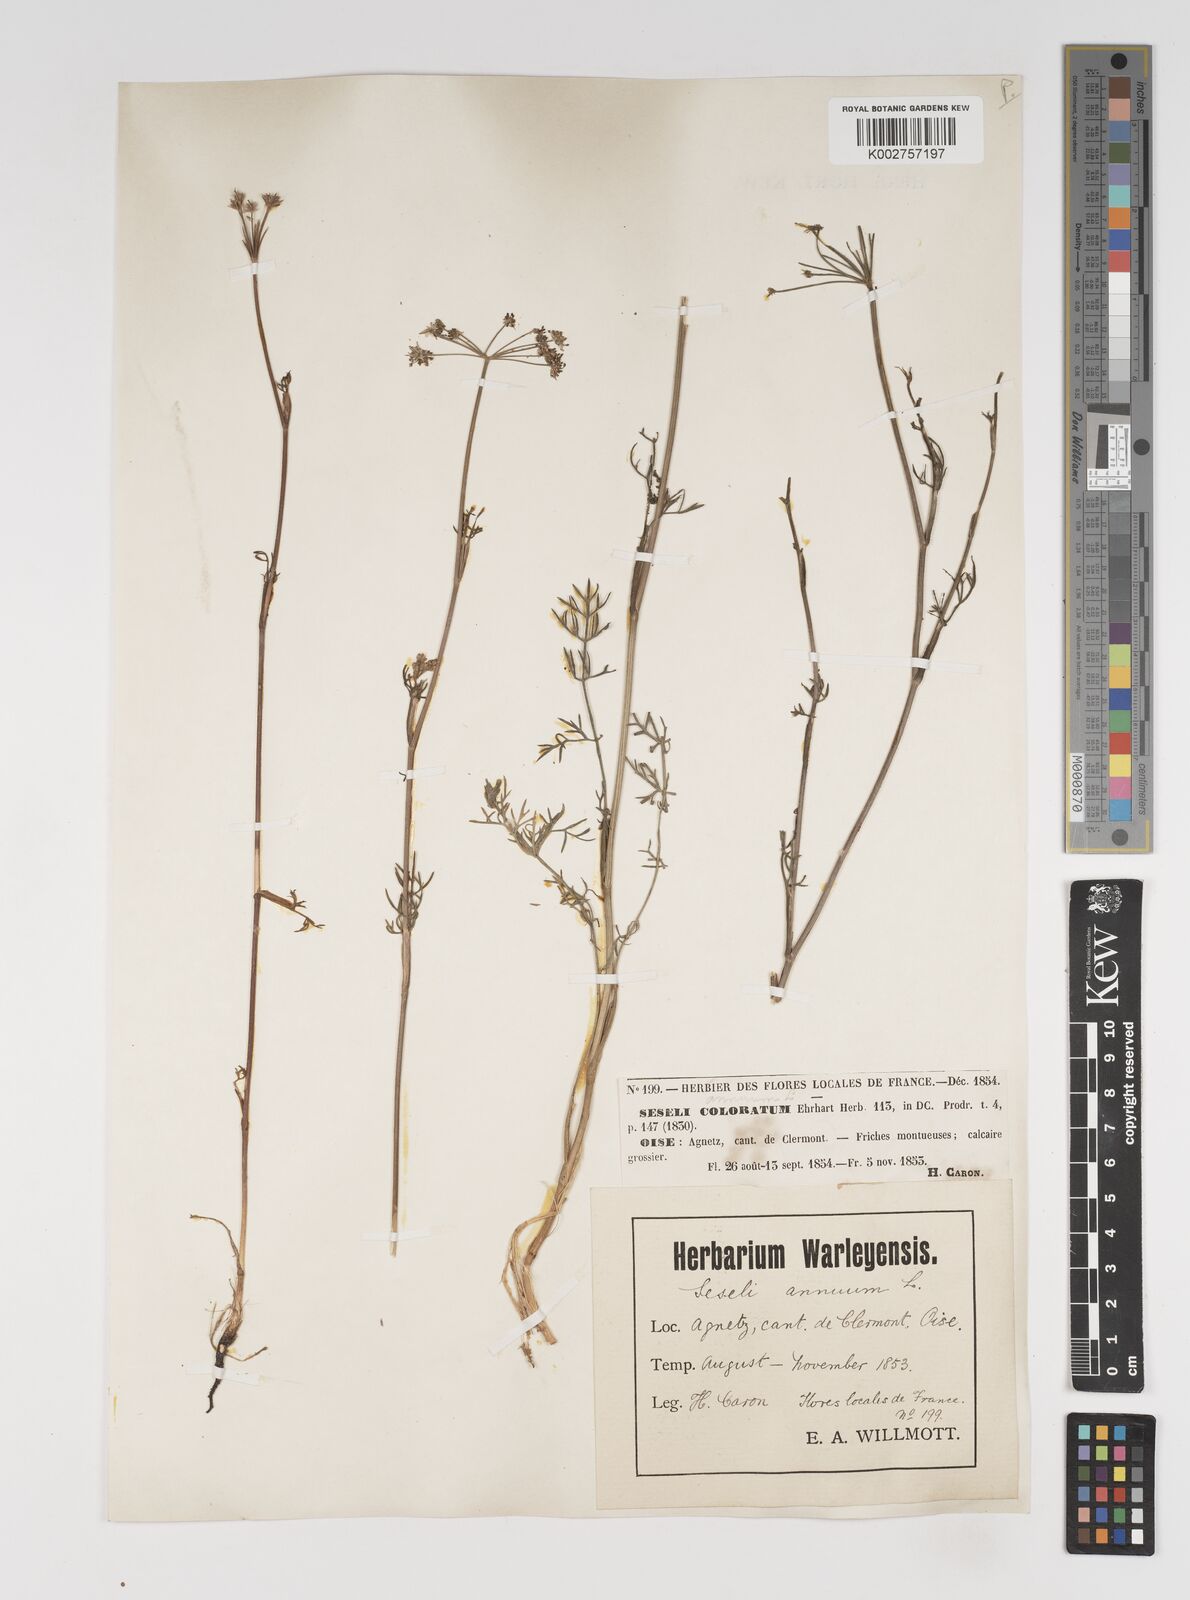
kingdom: Plantae
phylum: Tracheophyta
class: Magnoliopsida
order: Apiales
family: Apiaceae
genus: Seseli
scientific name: Seseli annuum
